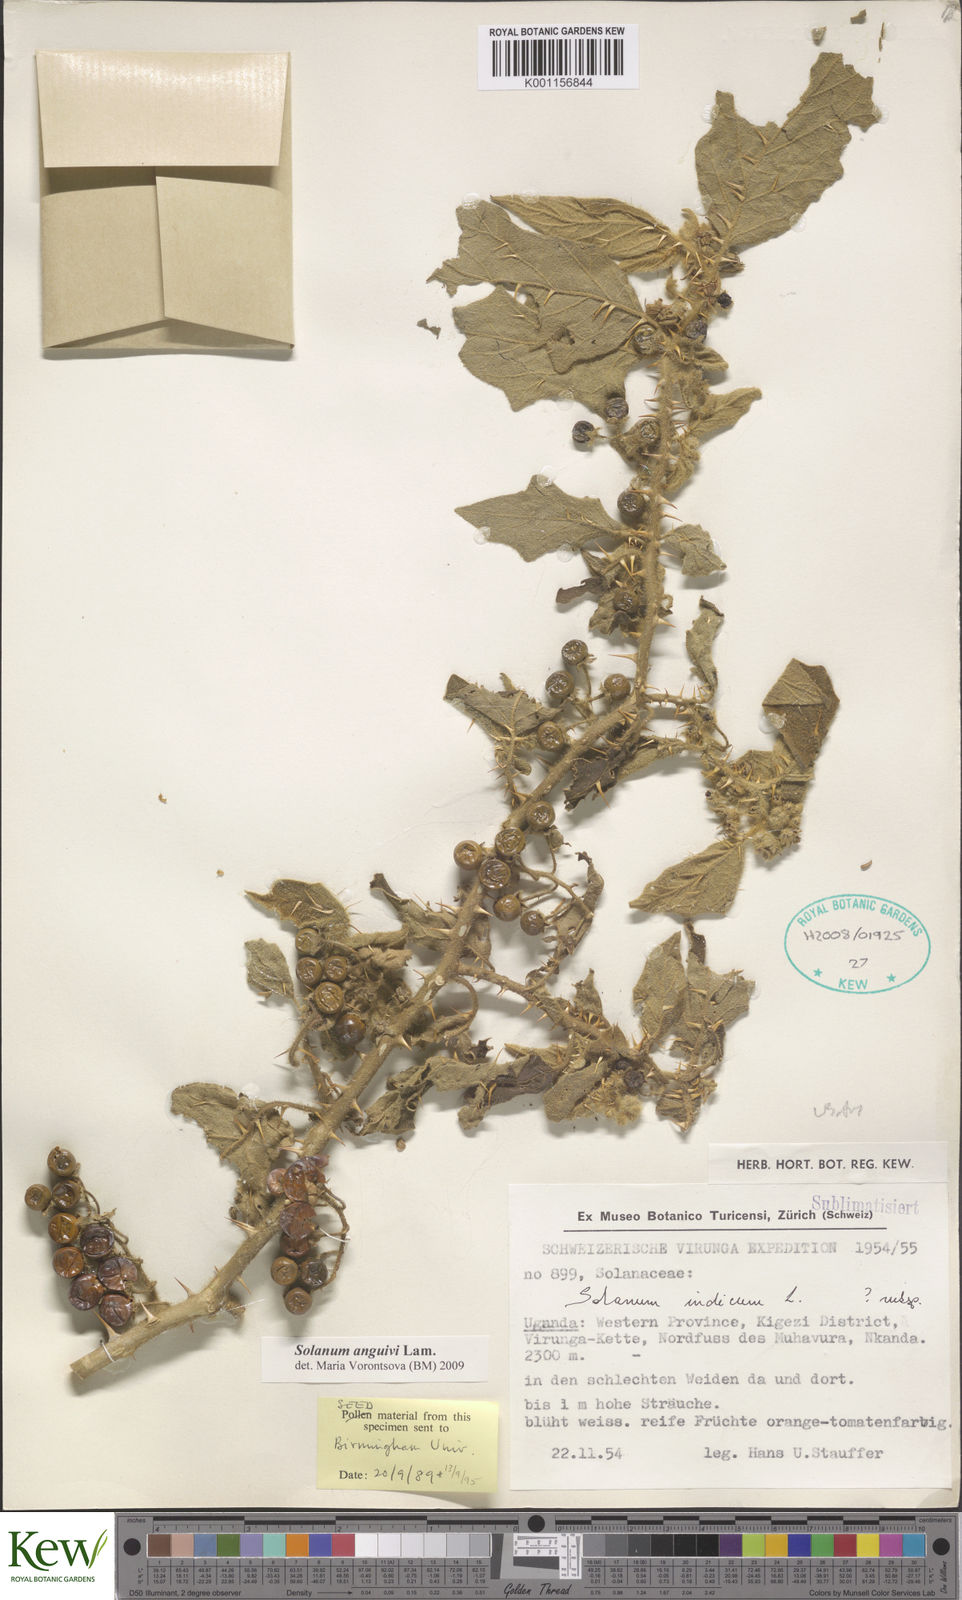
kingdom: Plantae
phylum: Tracheophyta
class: Magnoliopsida
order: Solanales
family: Solanaceae
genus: Solanum
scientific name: Solanum anguivi
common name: Forest bitterberry
